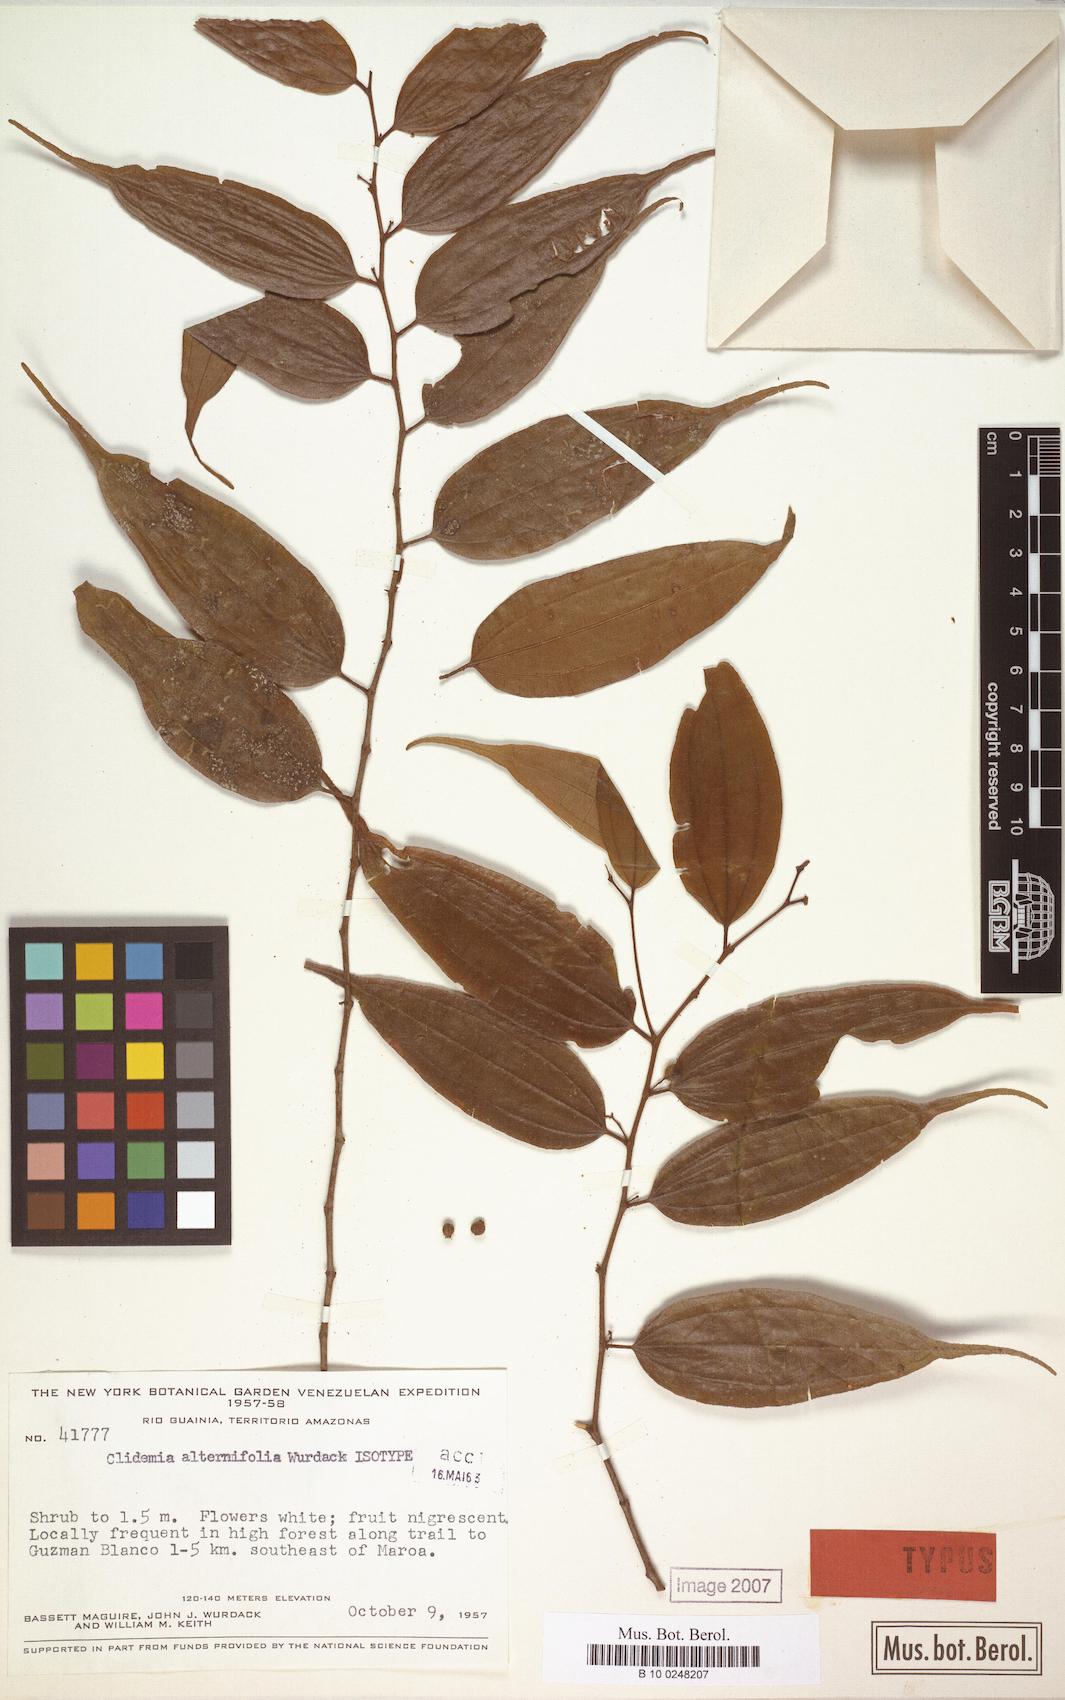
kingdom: Plantae
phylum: Tracheophyta
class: Magnoliopsida
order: Myrtales
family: Melastomataceae
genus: Miconia
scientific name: Miconia alternilamina
